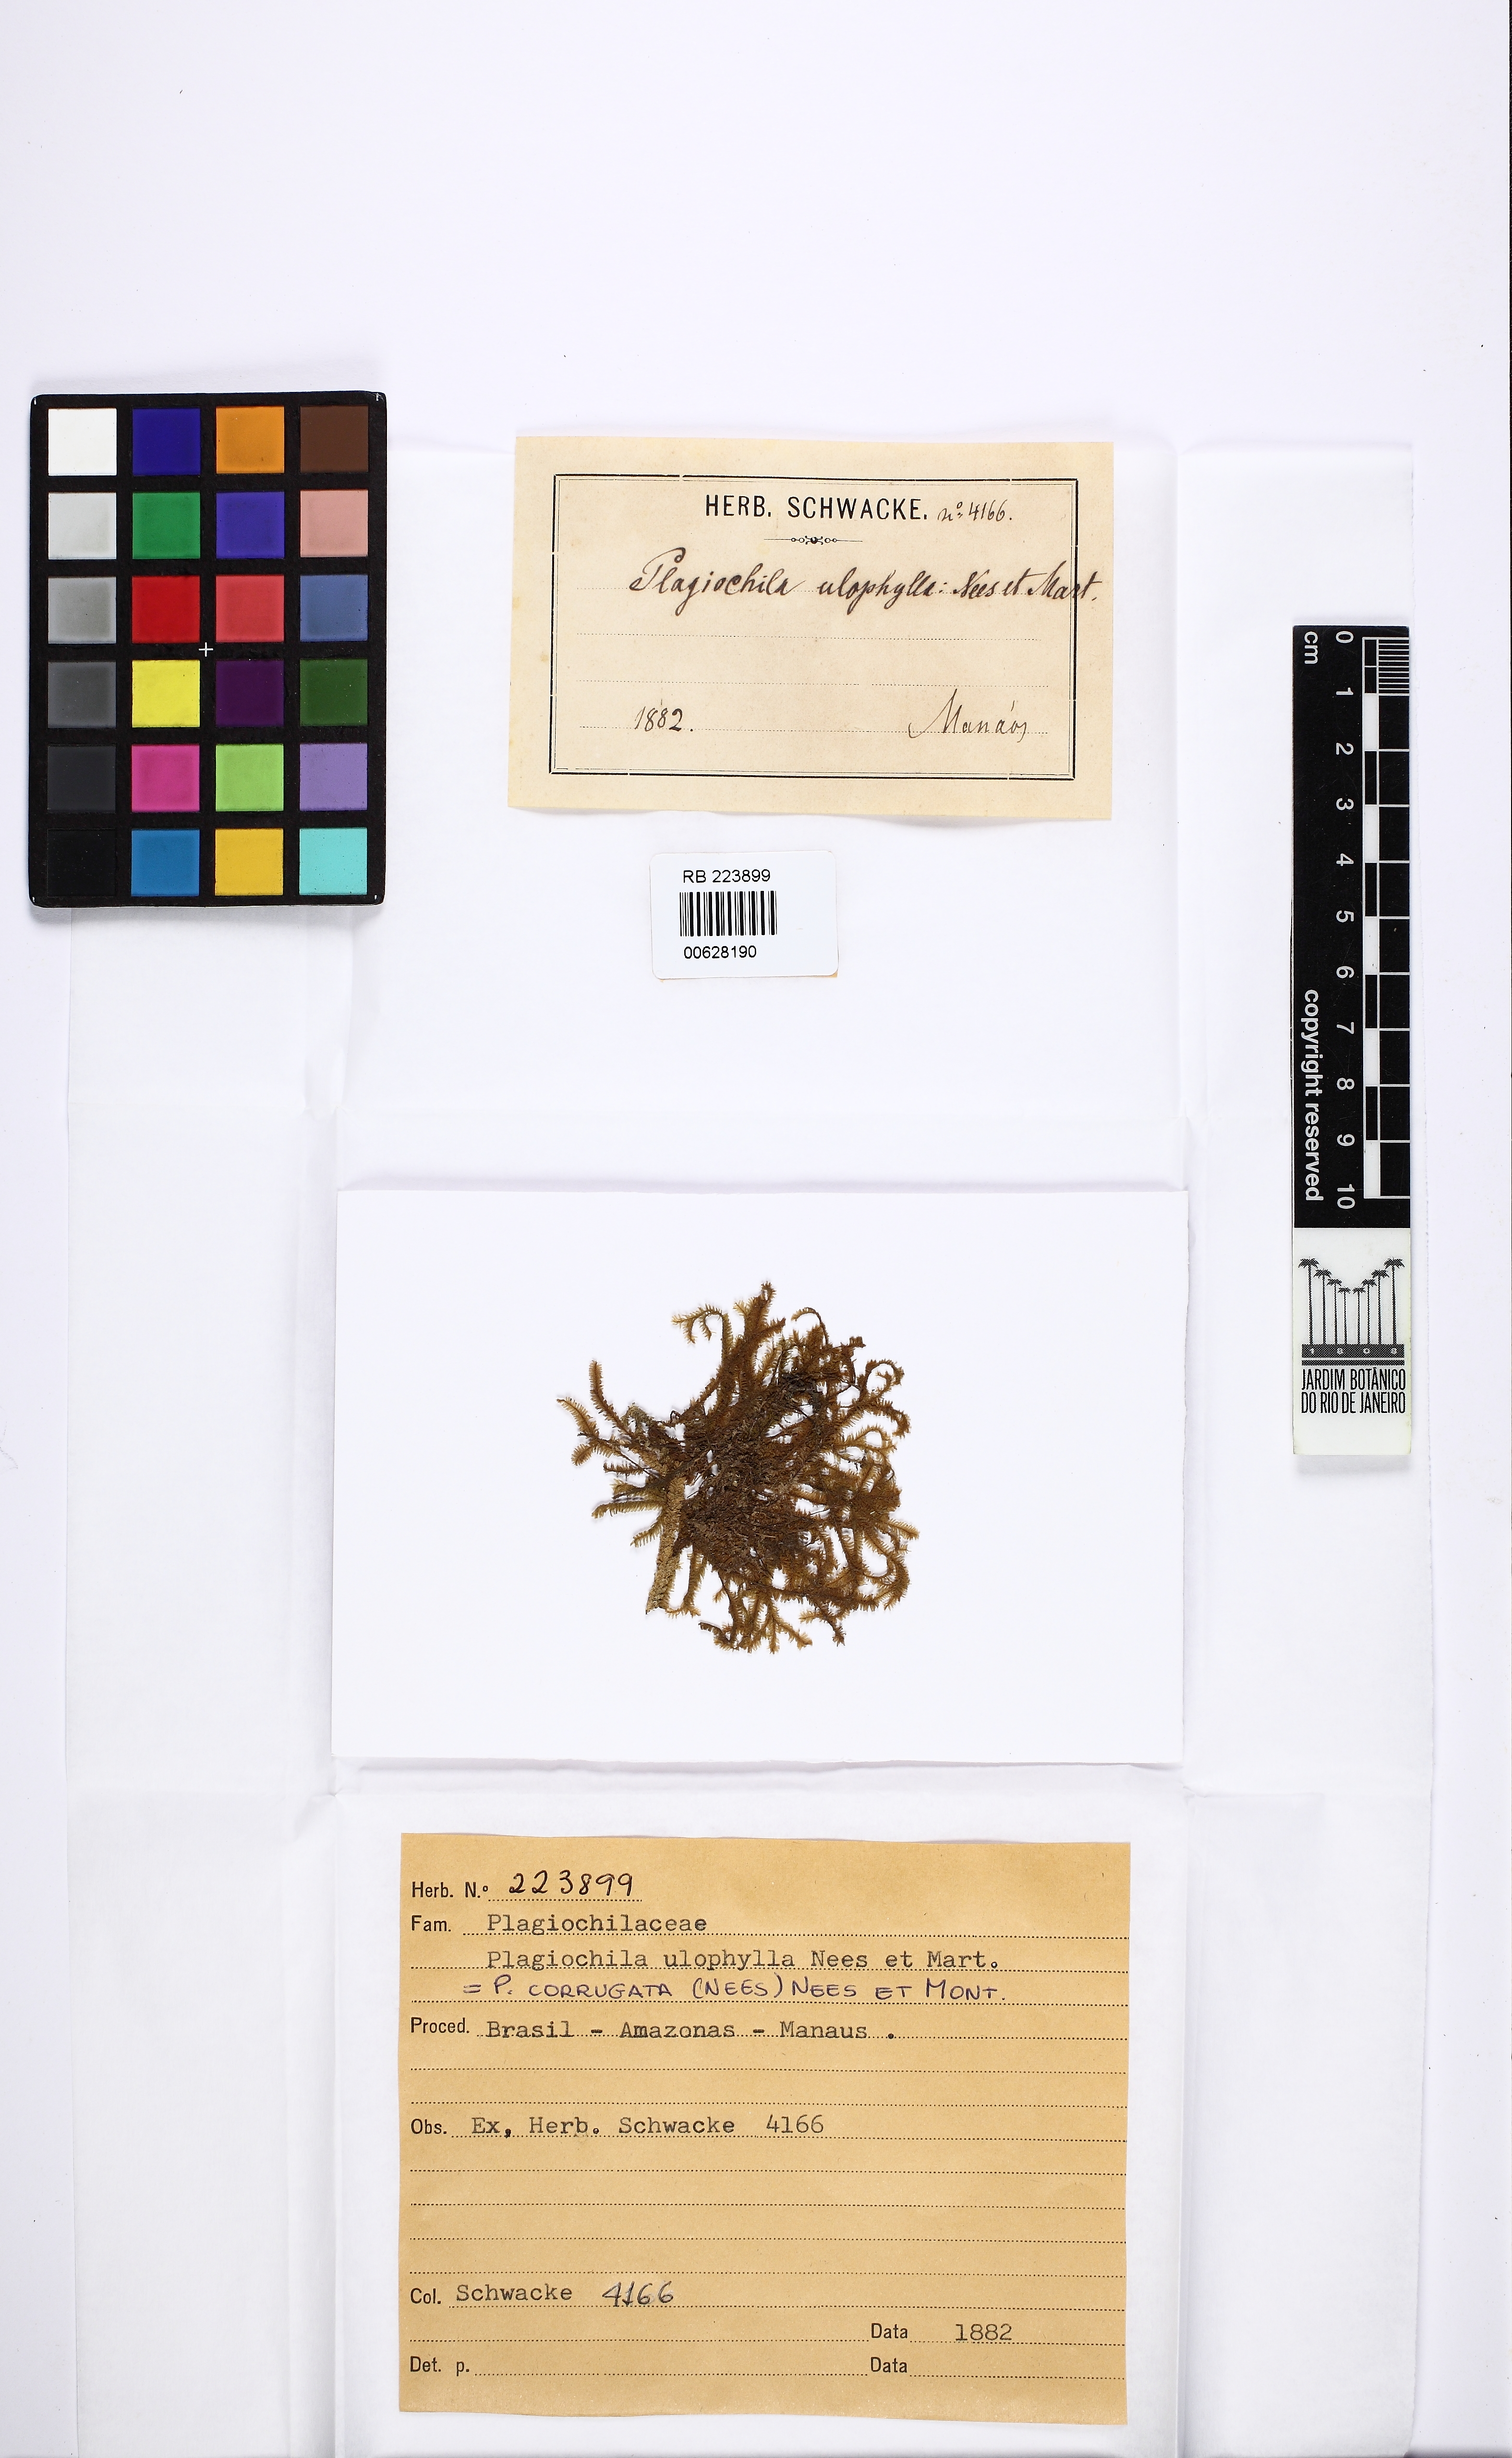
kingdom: Plantae
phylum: Marchantiophyta
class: Jungermanniopsida
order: Jungermanniales
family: Plagiochilaceae
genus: Plagiochila
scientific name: Plagiochila corrugata
